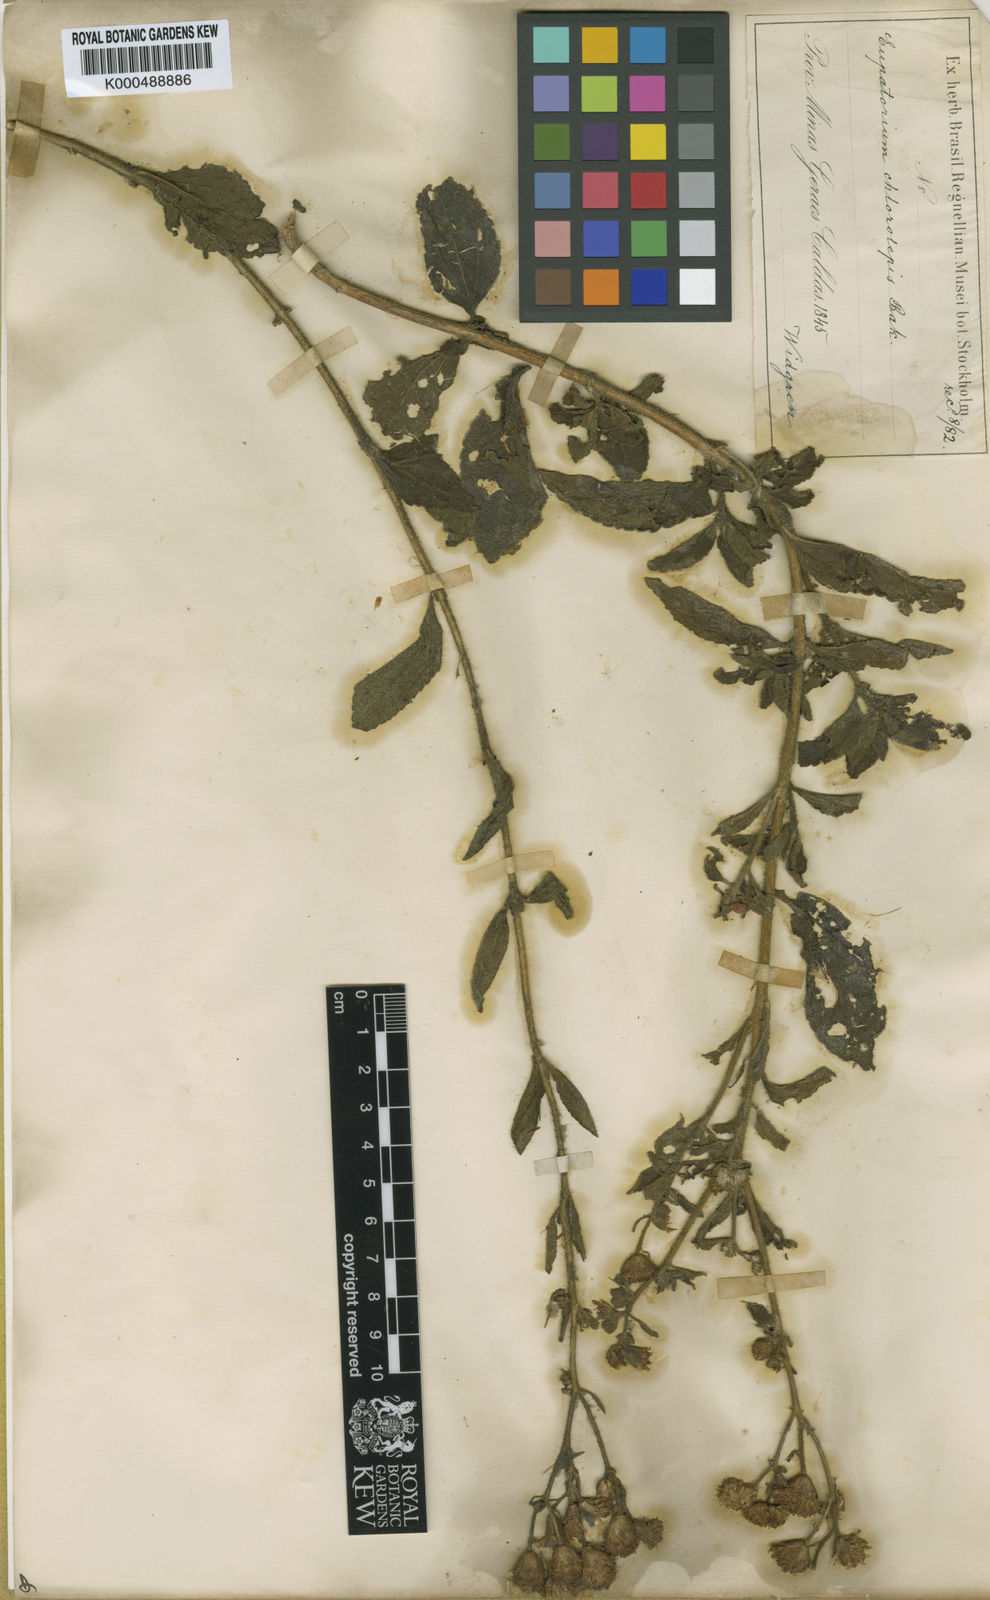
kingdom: Plantae
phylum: Tracheophyta
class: Magnoliopsida
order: Asterales
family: Asteraceae
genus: Campuloclinium
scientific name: Campuloclinium chlorolepis
